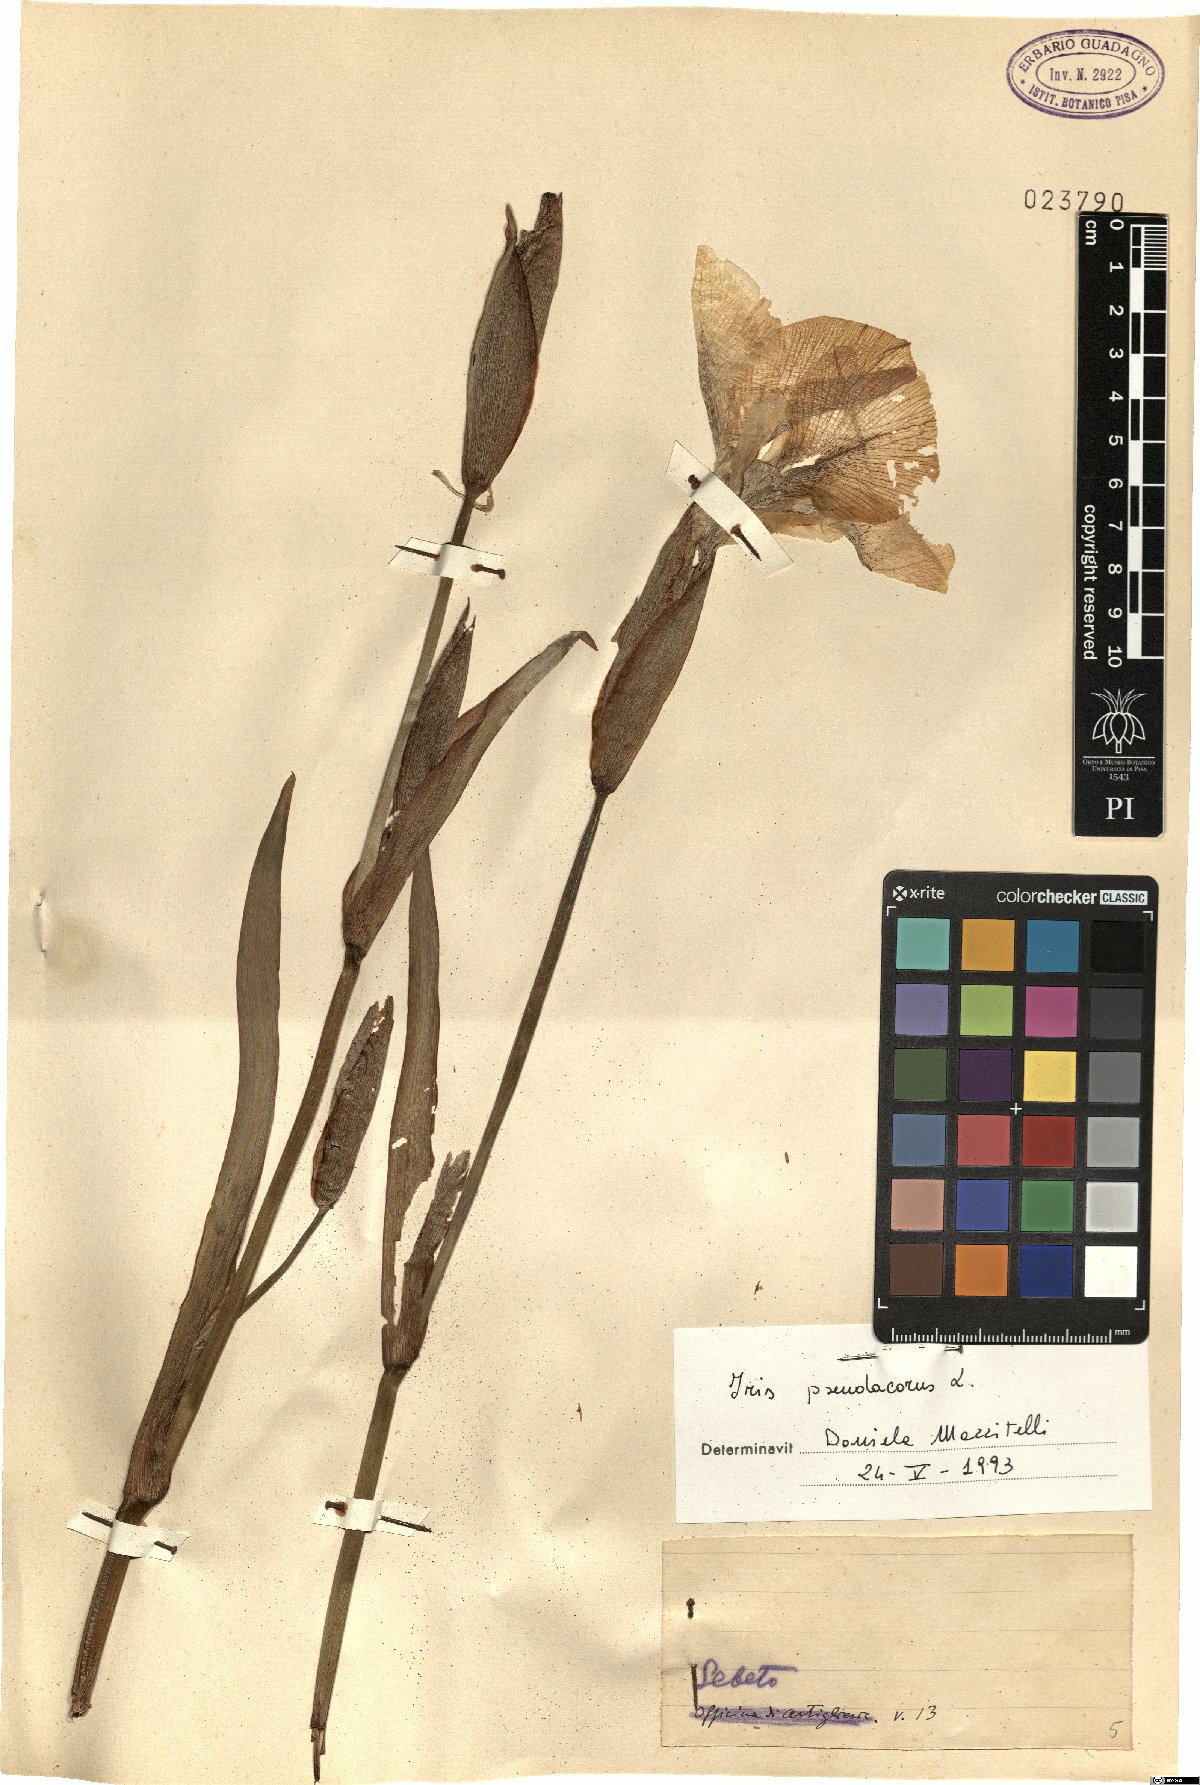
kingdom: Plantae
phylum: Tracheophyta
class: Liliopsida
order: Asparagales
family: Iridaceae
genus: Iris
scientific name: Iris pseudacorus
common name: Yellow flag
